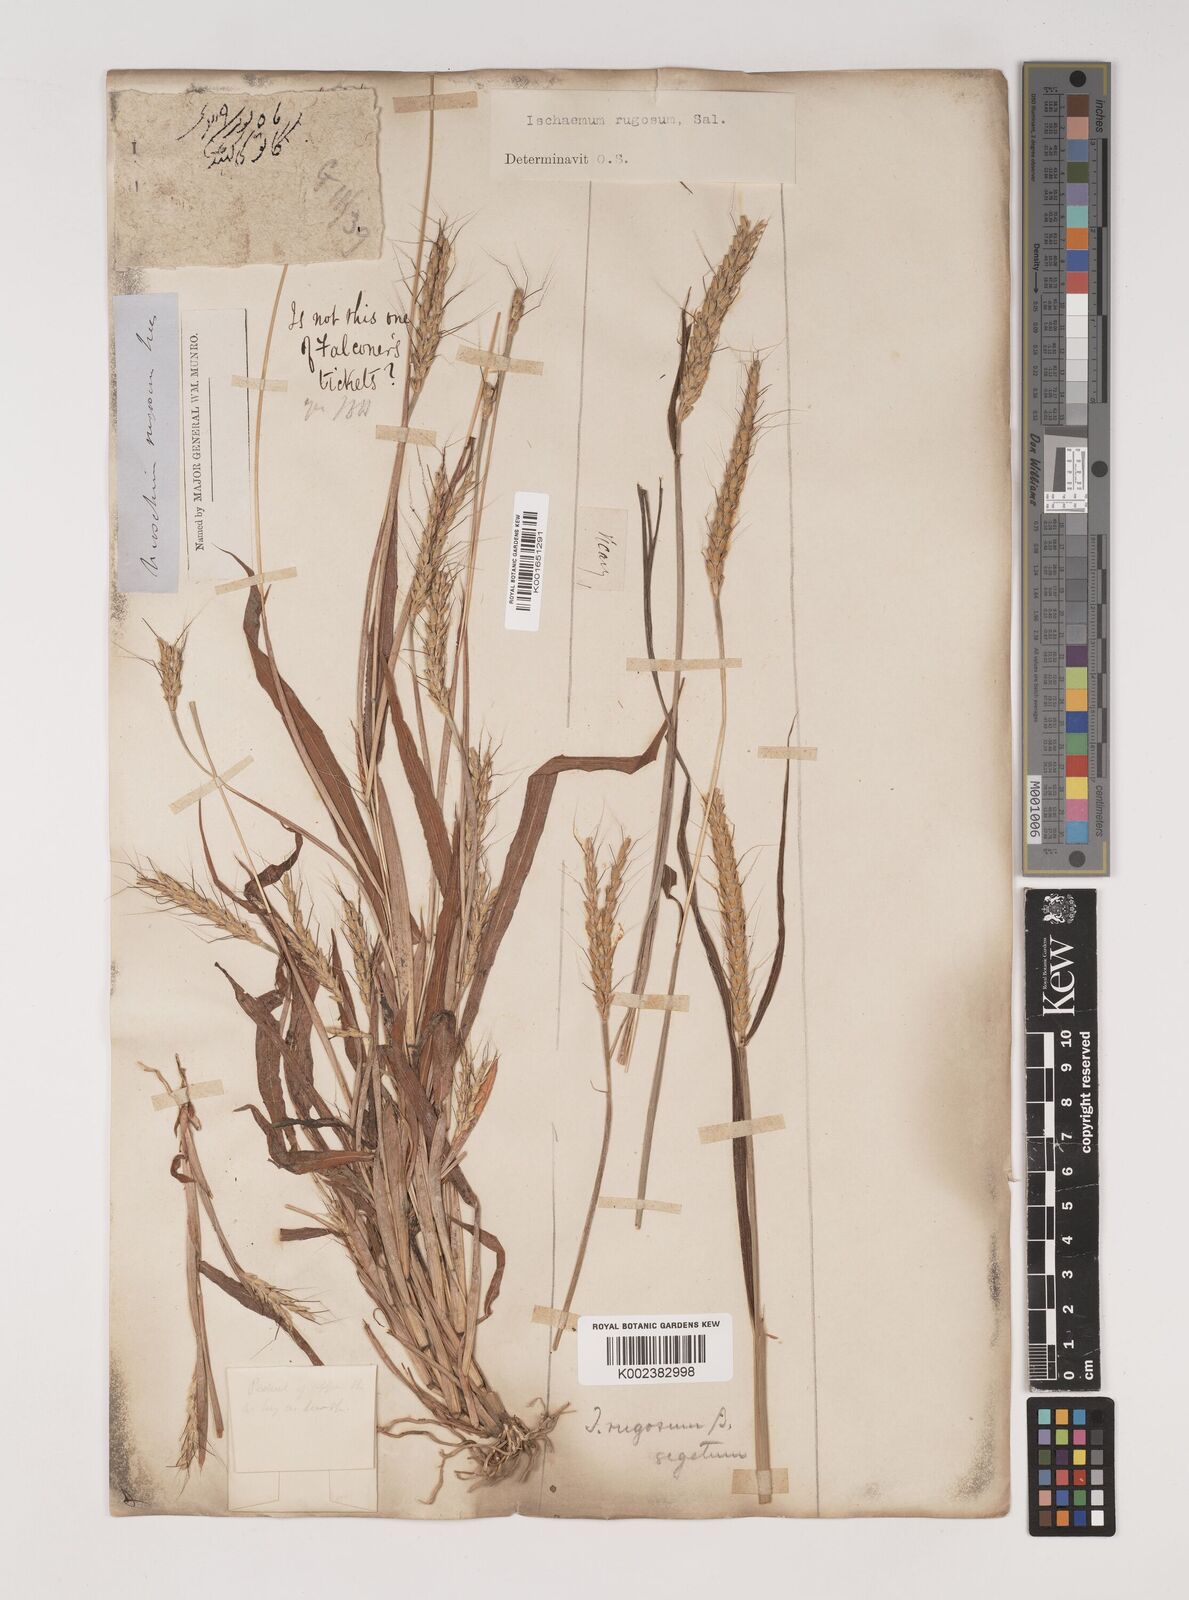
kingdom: Plantae
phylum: Tracheophyta
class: Liliopsida
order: Poales
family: Poaceae
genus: Ischaemum
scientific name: Ischaemum rugosum
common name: Saramatta grass
